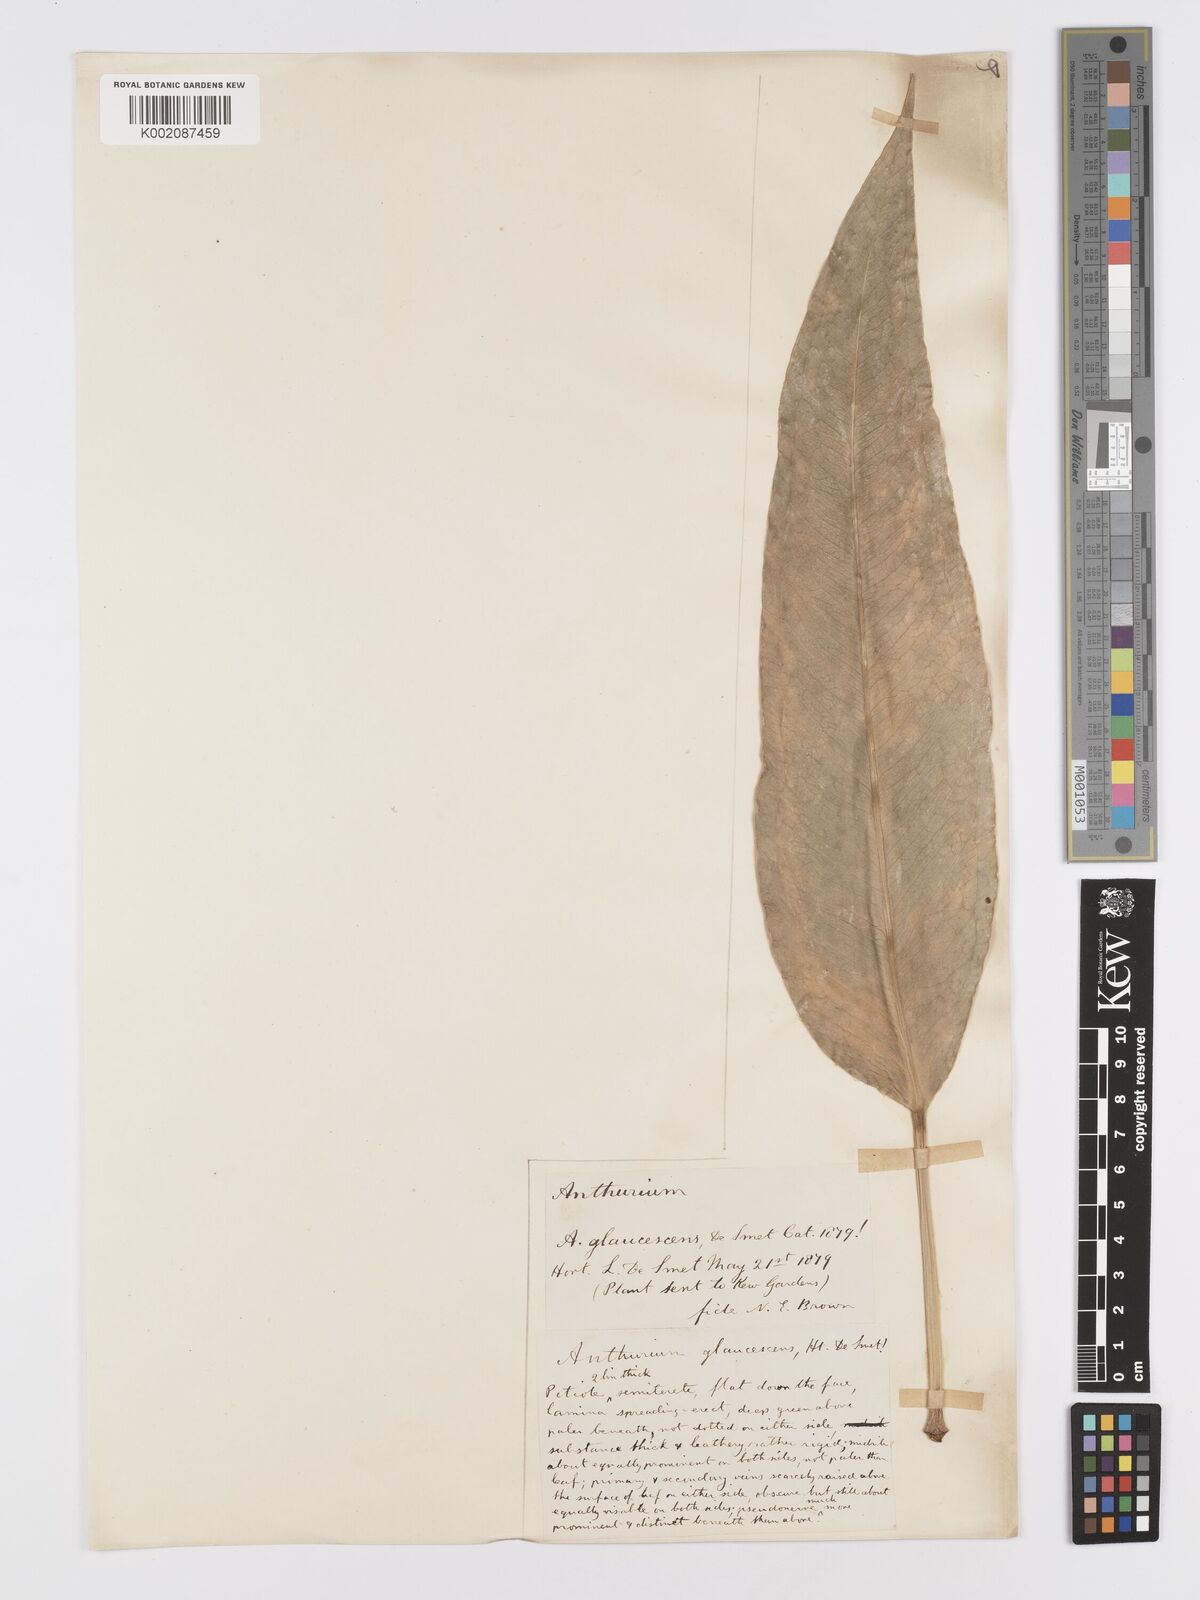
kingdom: Plantae
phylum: Tracheophyta
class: Liliopsida
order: Alismatales
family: Araceae
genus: Anthurium
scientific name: Anthurium
